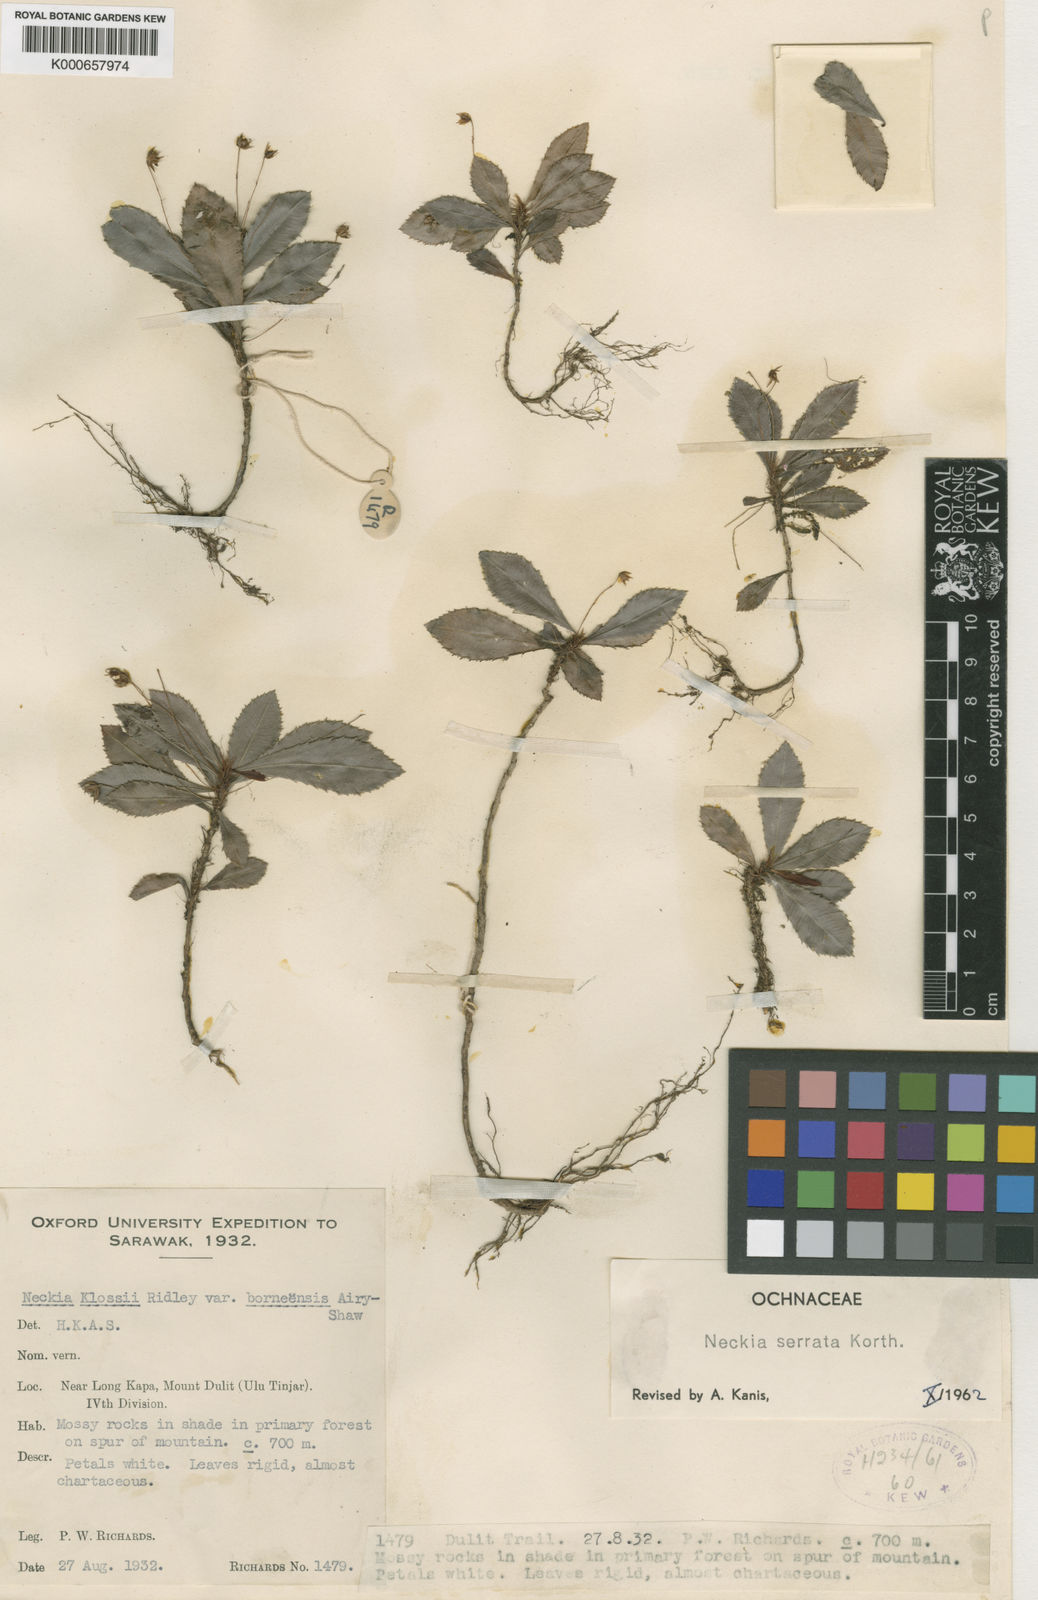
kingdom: Plantae
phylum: Tracheophyta
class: Magnoliopsida
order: Malpighiales
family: Ochnaceae
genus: Neckia
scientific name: Neckia serrata
